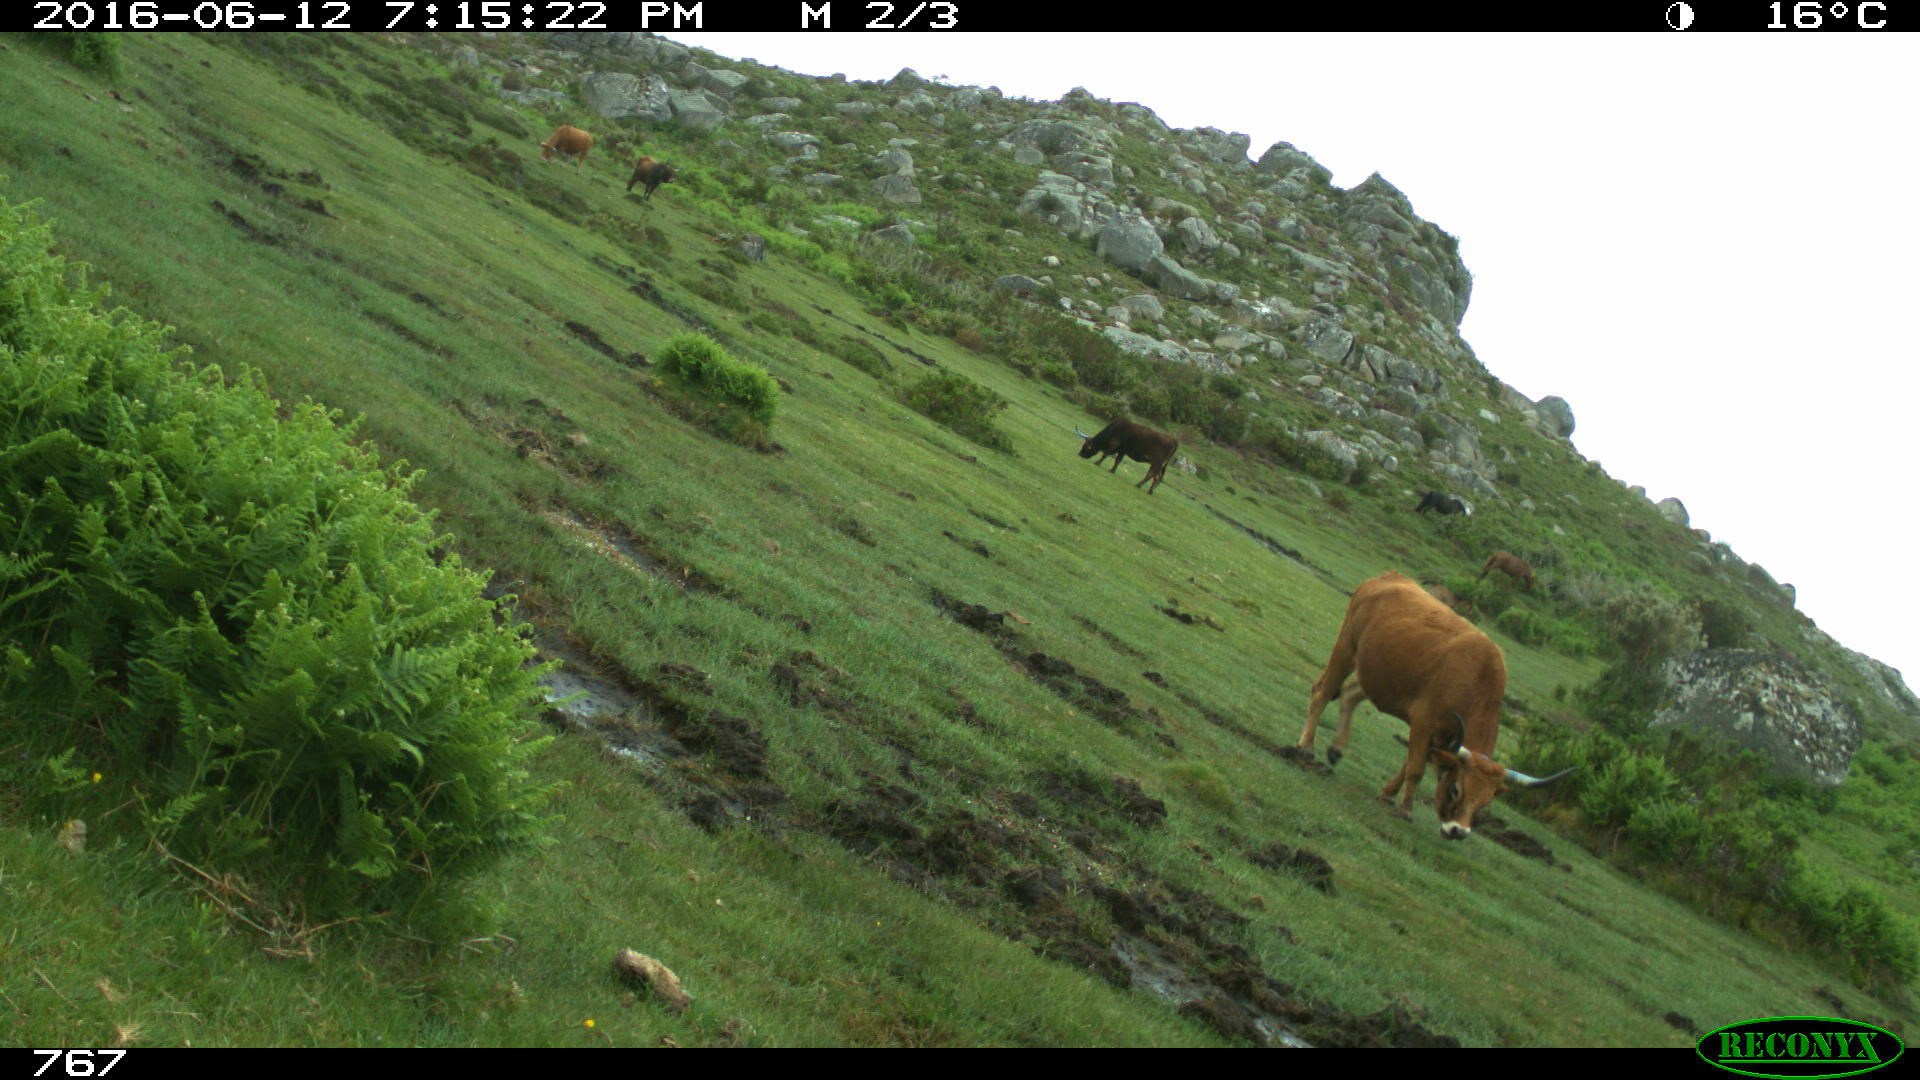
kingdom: Animalia
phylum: Chordata
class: Mammalia
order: Artiodactyla
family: Bovidae
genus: Bos
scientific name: Bos taurus
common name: Domesticated cattle
